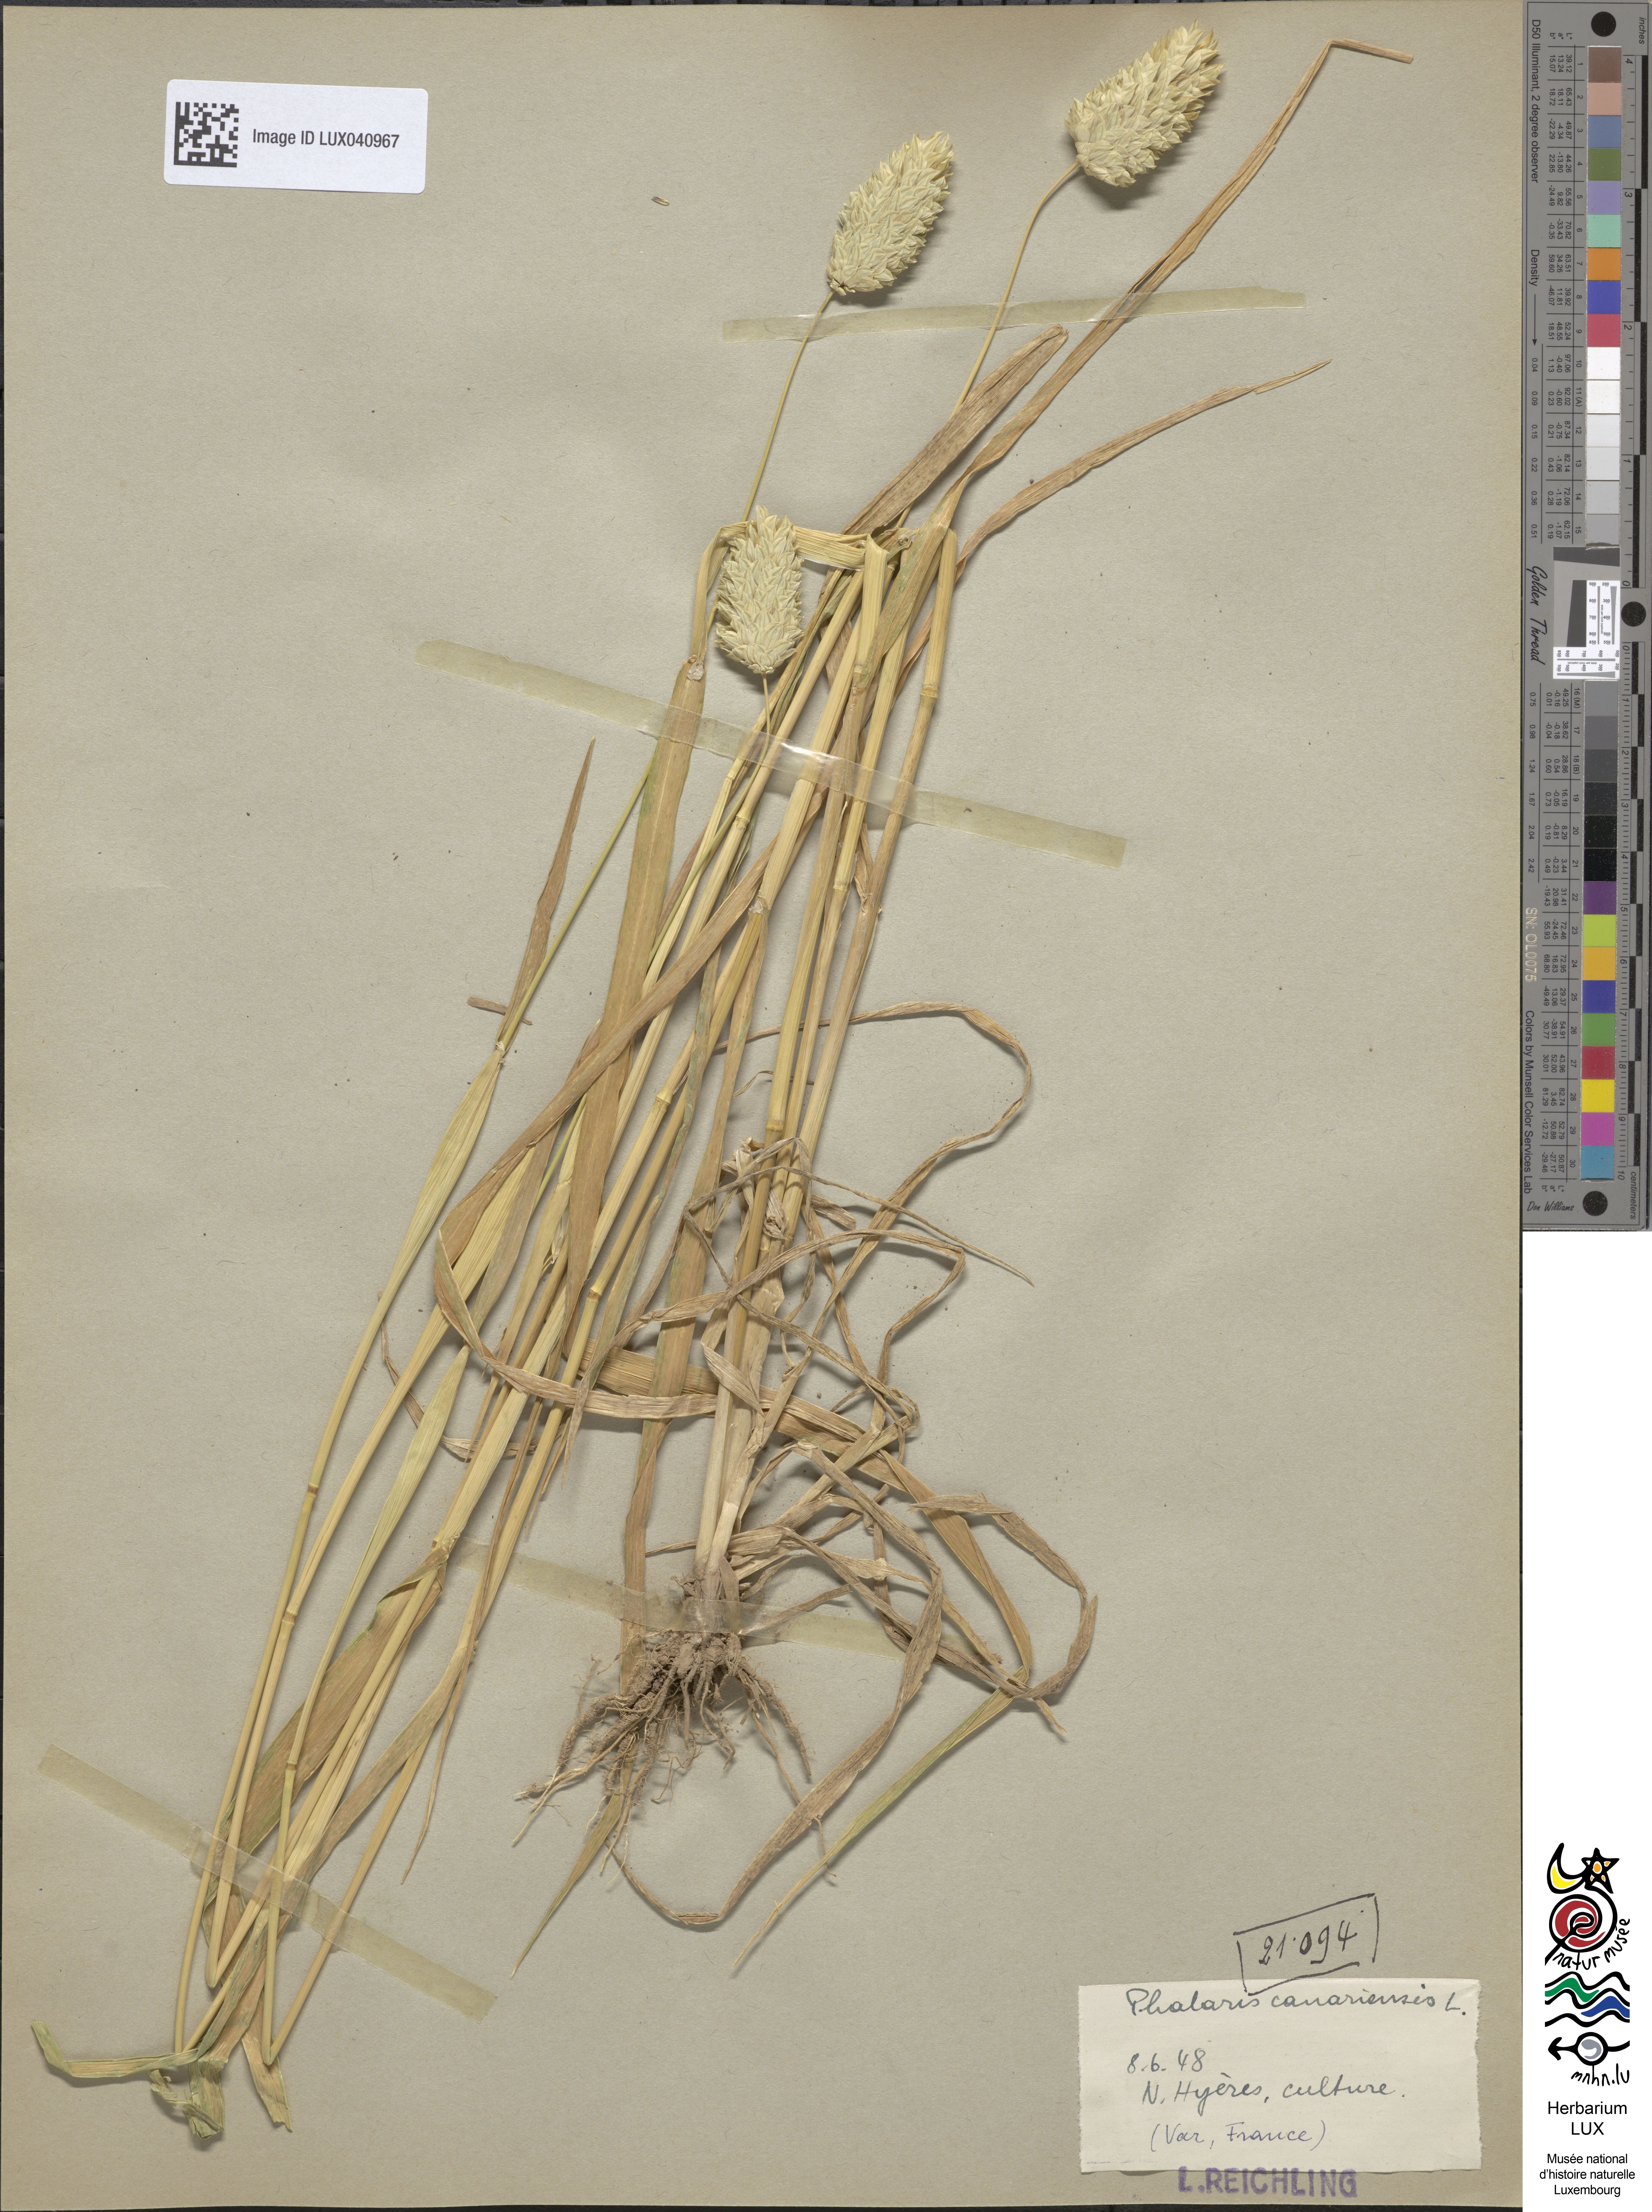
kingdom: Plantae
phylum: Tracheophyta
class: Liliopsida
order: Poales
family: Poaceae
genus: Phalaris
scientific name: Phalaris canariensis
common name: Annual canarygrass
